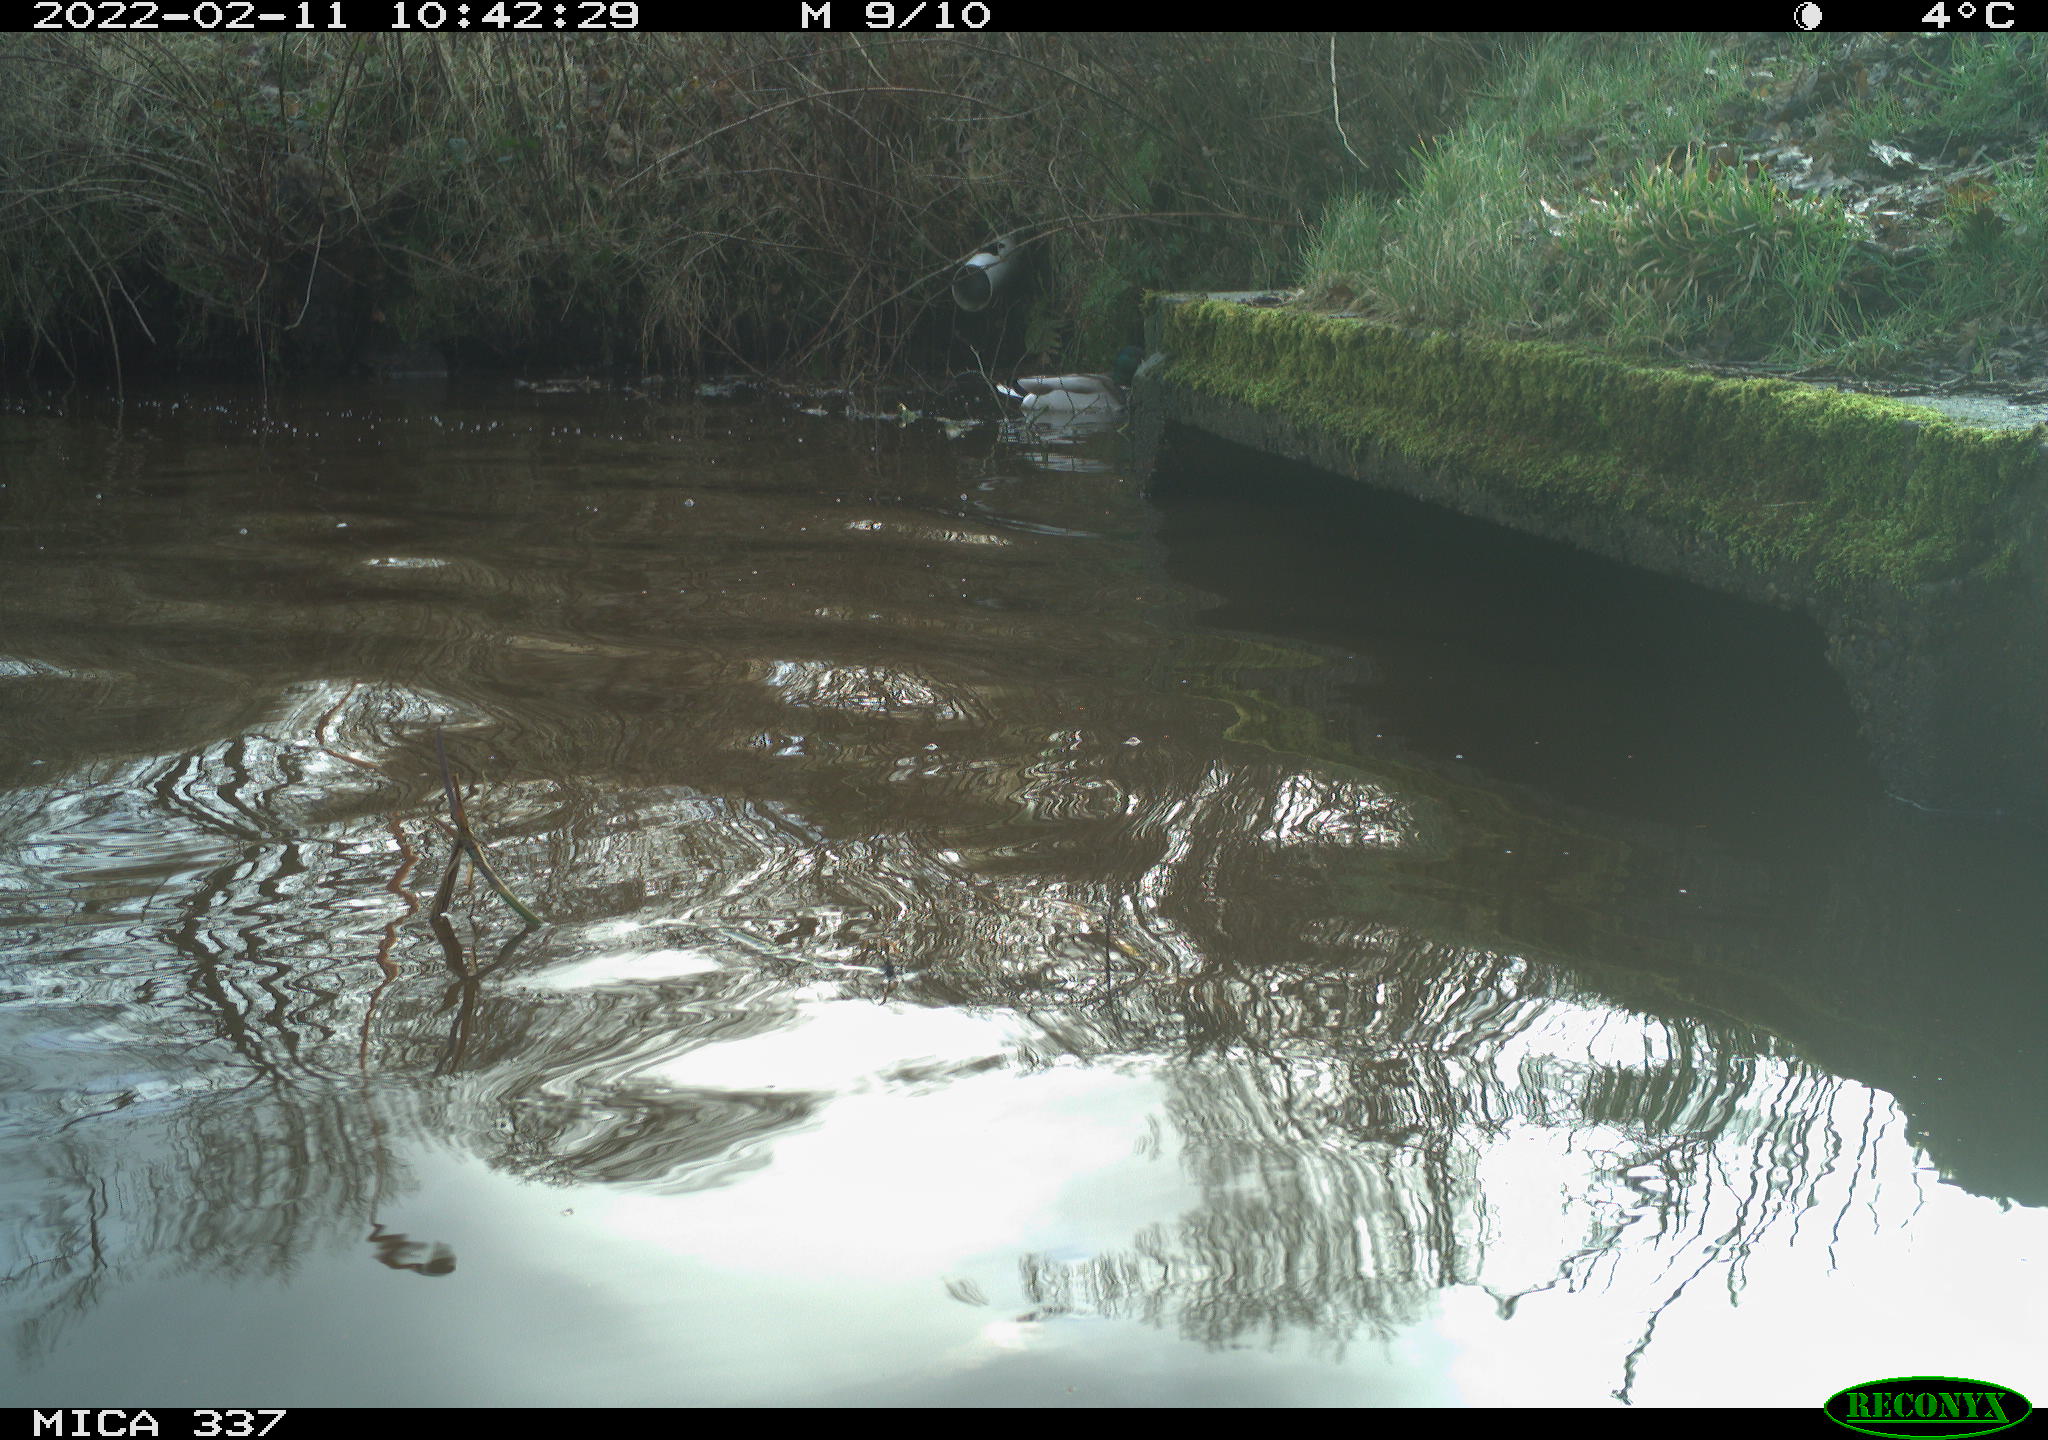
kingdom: Animalia
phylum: Chordata
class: Aves
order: Anseriformes
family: Anatidae
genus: Anas
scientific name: Anas platyrhynchos
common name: Mallard
